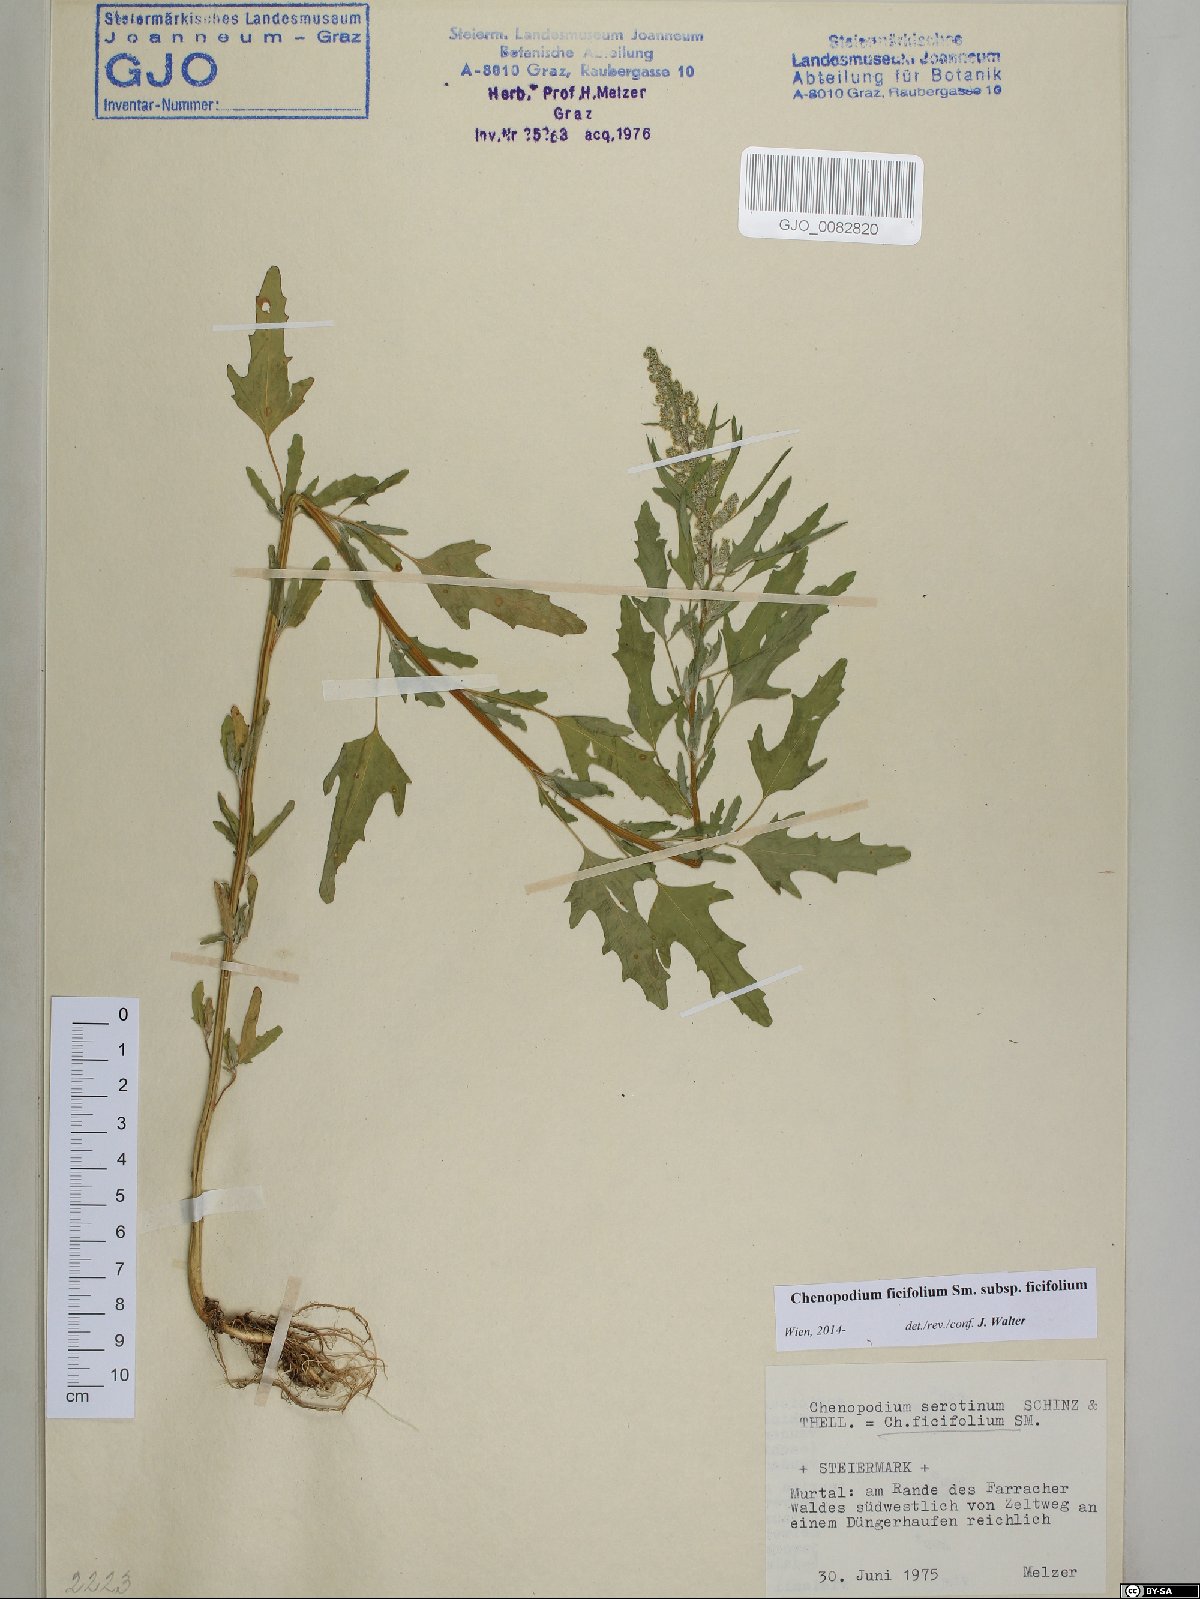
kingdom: Plantae
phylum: Tracheophyta
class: Magnoliopsida
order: Caryophyllales
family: Amaranthaceae
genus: Chenopodium
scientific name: Chenopodium ficifolium
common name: Fig-leaved goosefoot
